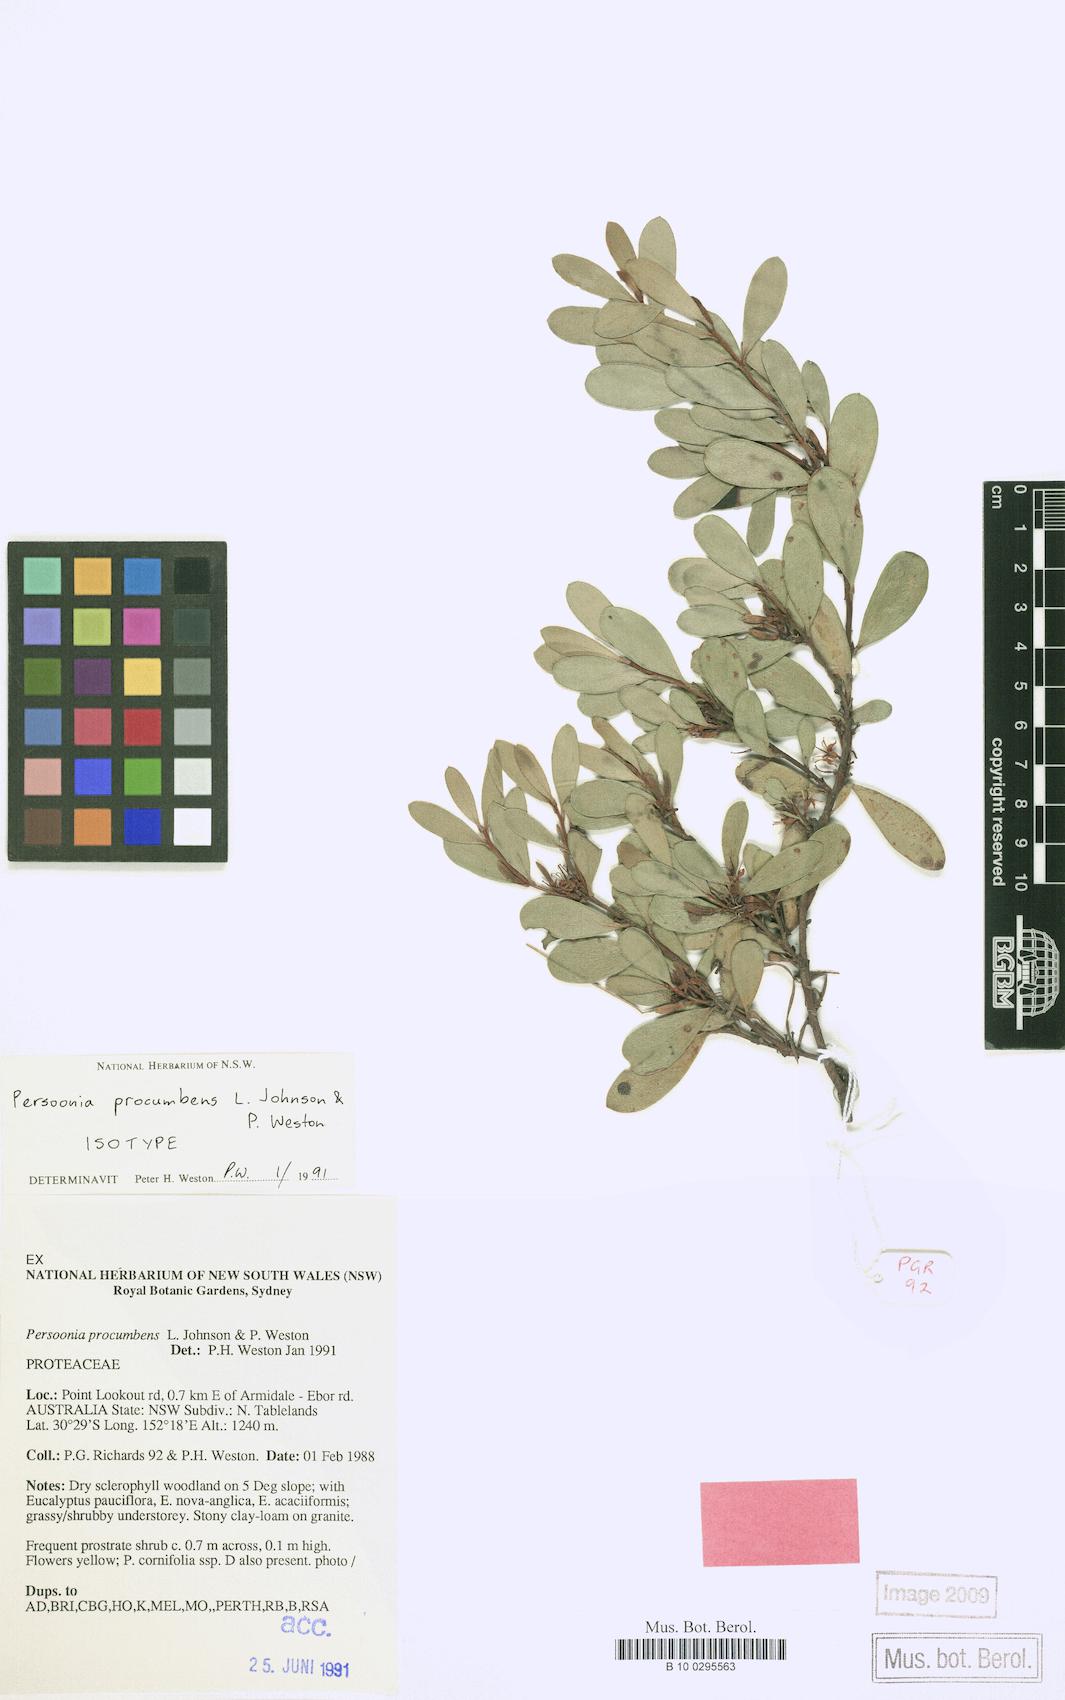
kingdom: Plantae
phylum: Tracheophyta
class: Magnoliopsida
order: Proteales
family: Proteaceae
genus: Persoonia
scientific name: Persoonia procumbens
